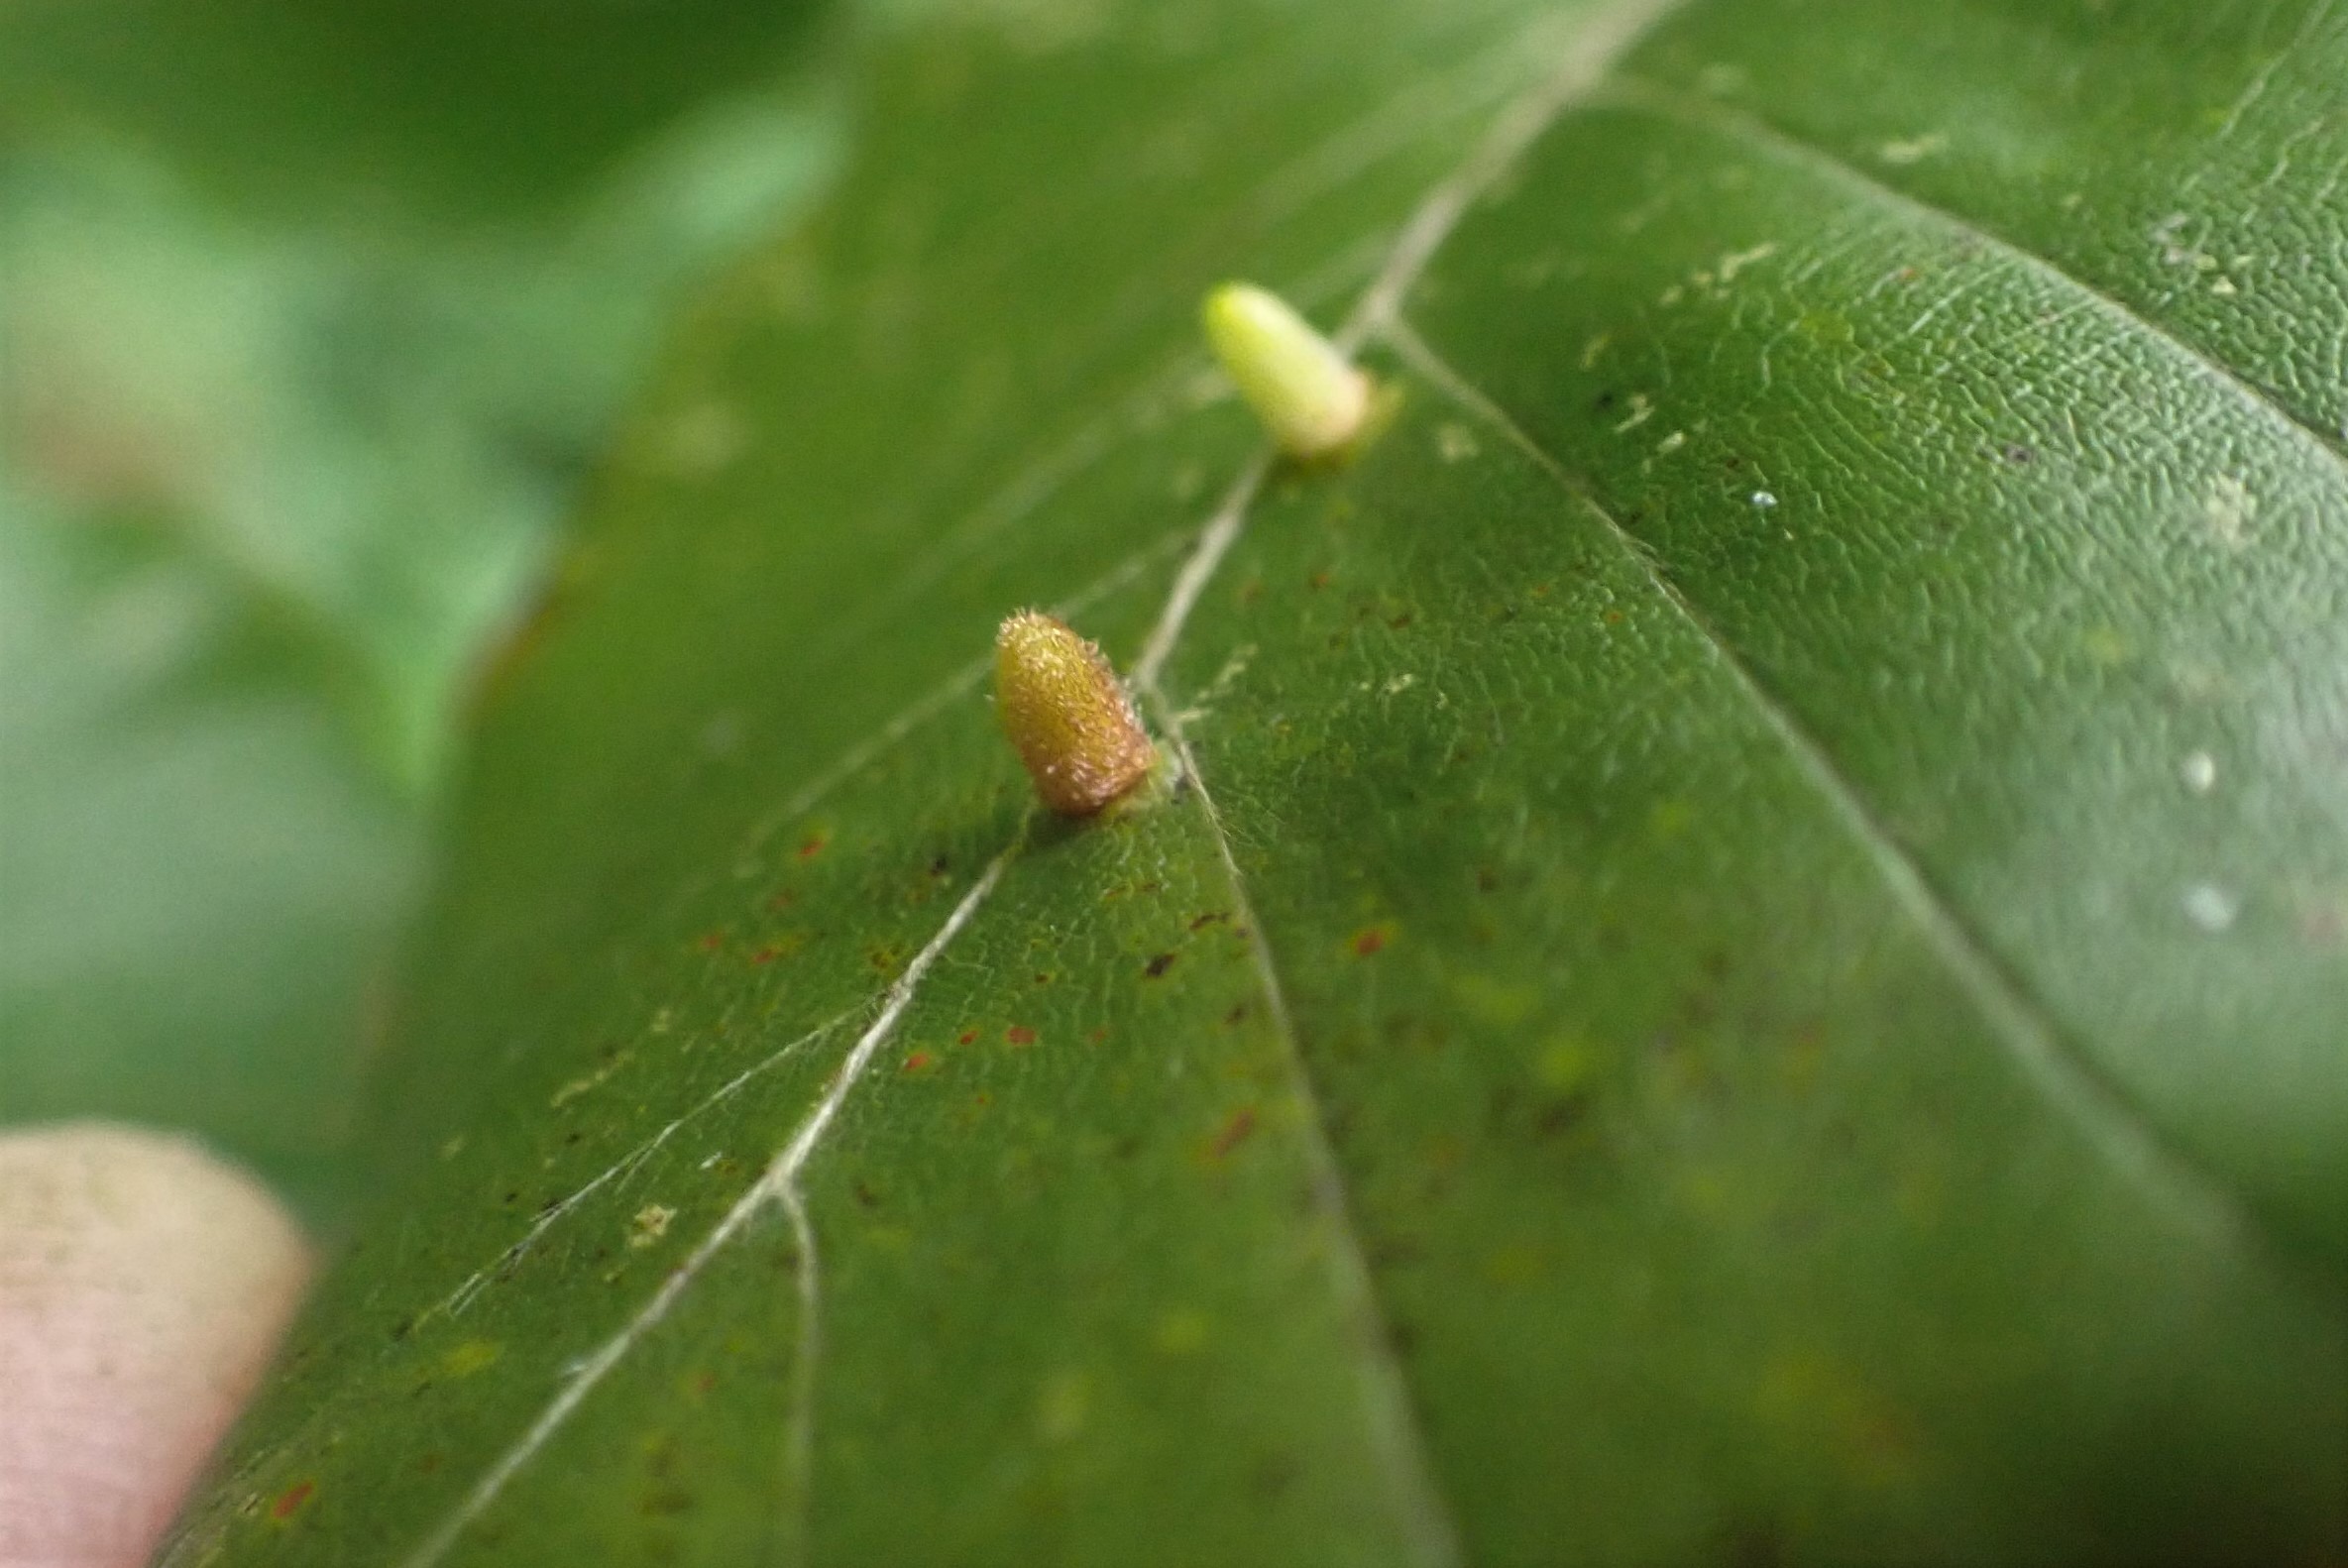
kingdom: Animalia
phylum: Arthropoda
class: Insecta
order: Diptera
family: Cecidomyiidae
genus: Hartigiola
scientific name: Hartigiola annulipes
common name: Skovtroldegalmyg
